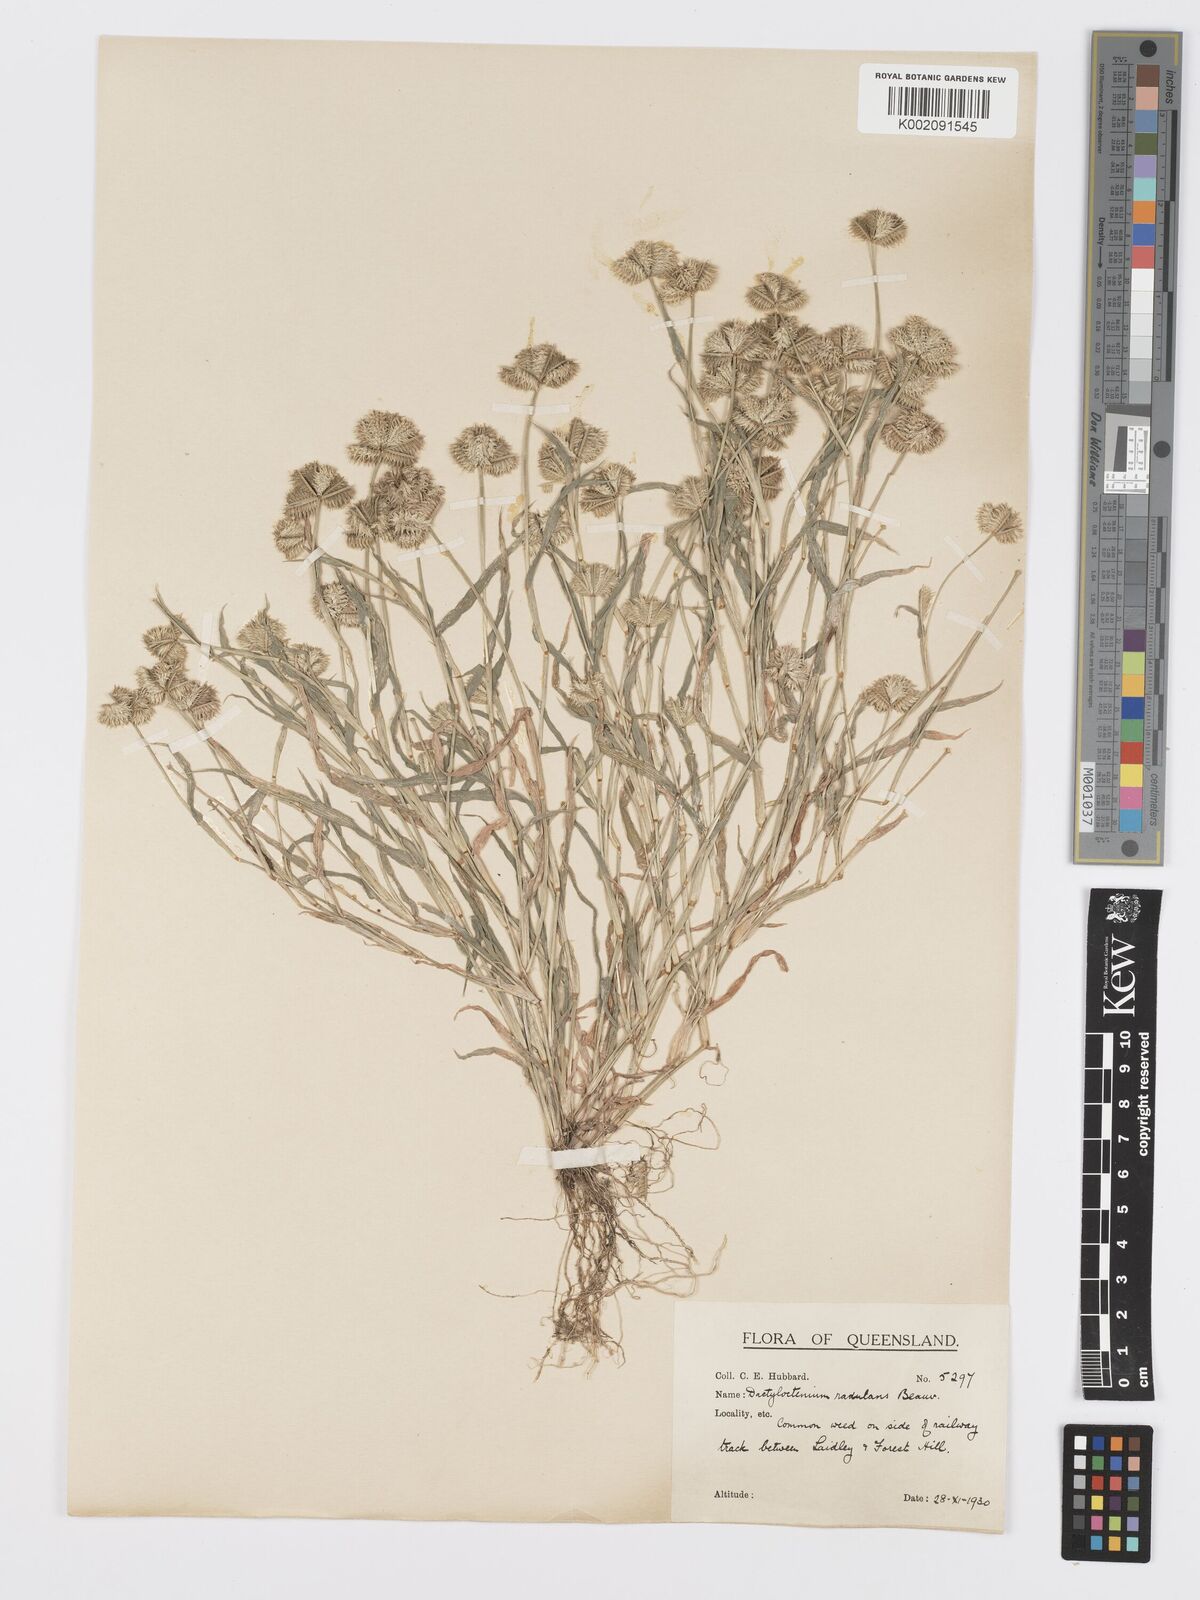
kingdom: Plantae
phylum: Tracheophyta
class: Liliopsida
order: Poales
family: Poaceae
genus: Dactyloctenium
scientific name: Dactyloctenium radulans
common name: Button-grass
